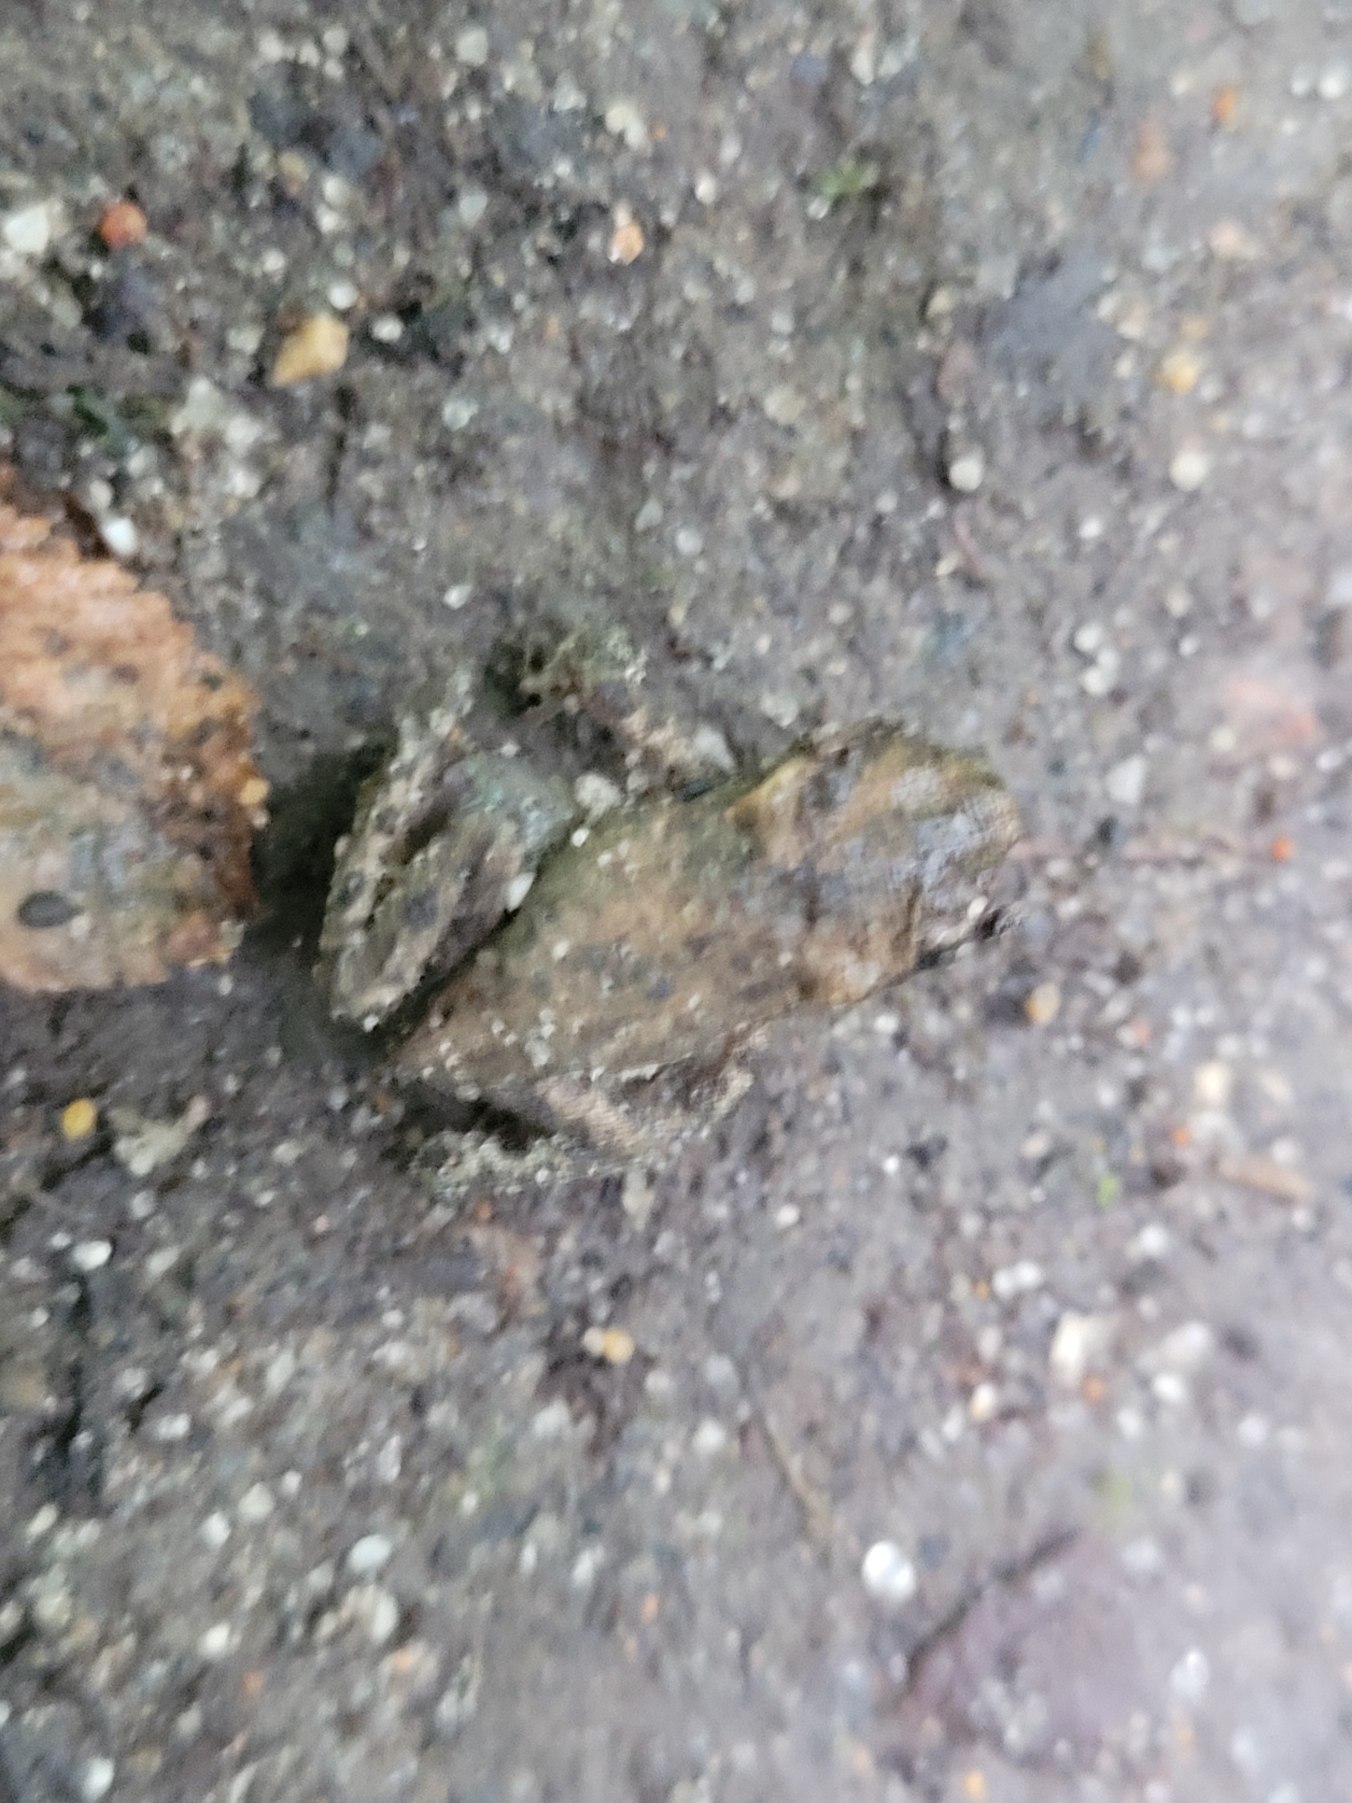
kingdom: Animalia
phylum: Chordata
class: Amphibia
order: Anura
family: Bufonidae
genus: Bufo
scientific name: Bufo bufo
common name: Skrubtudse
